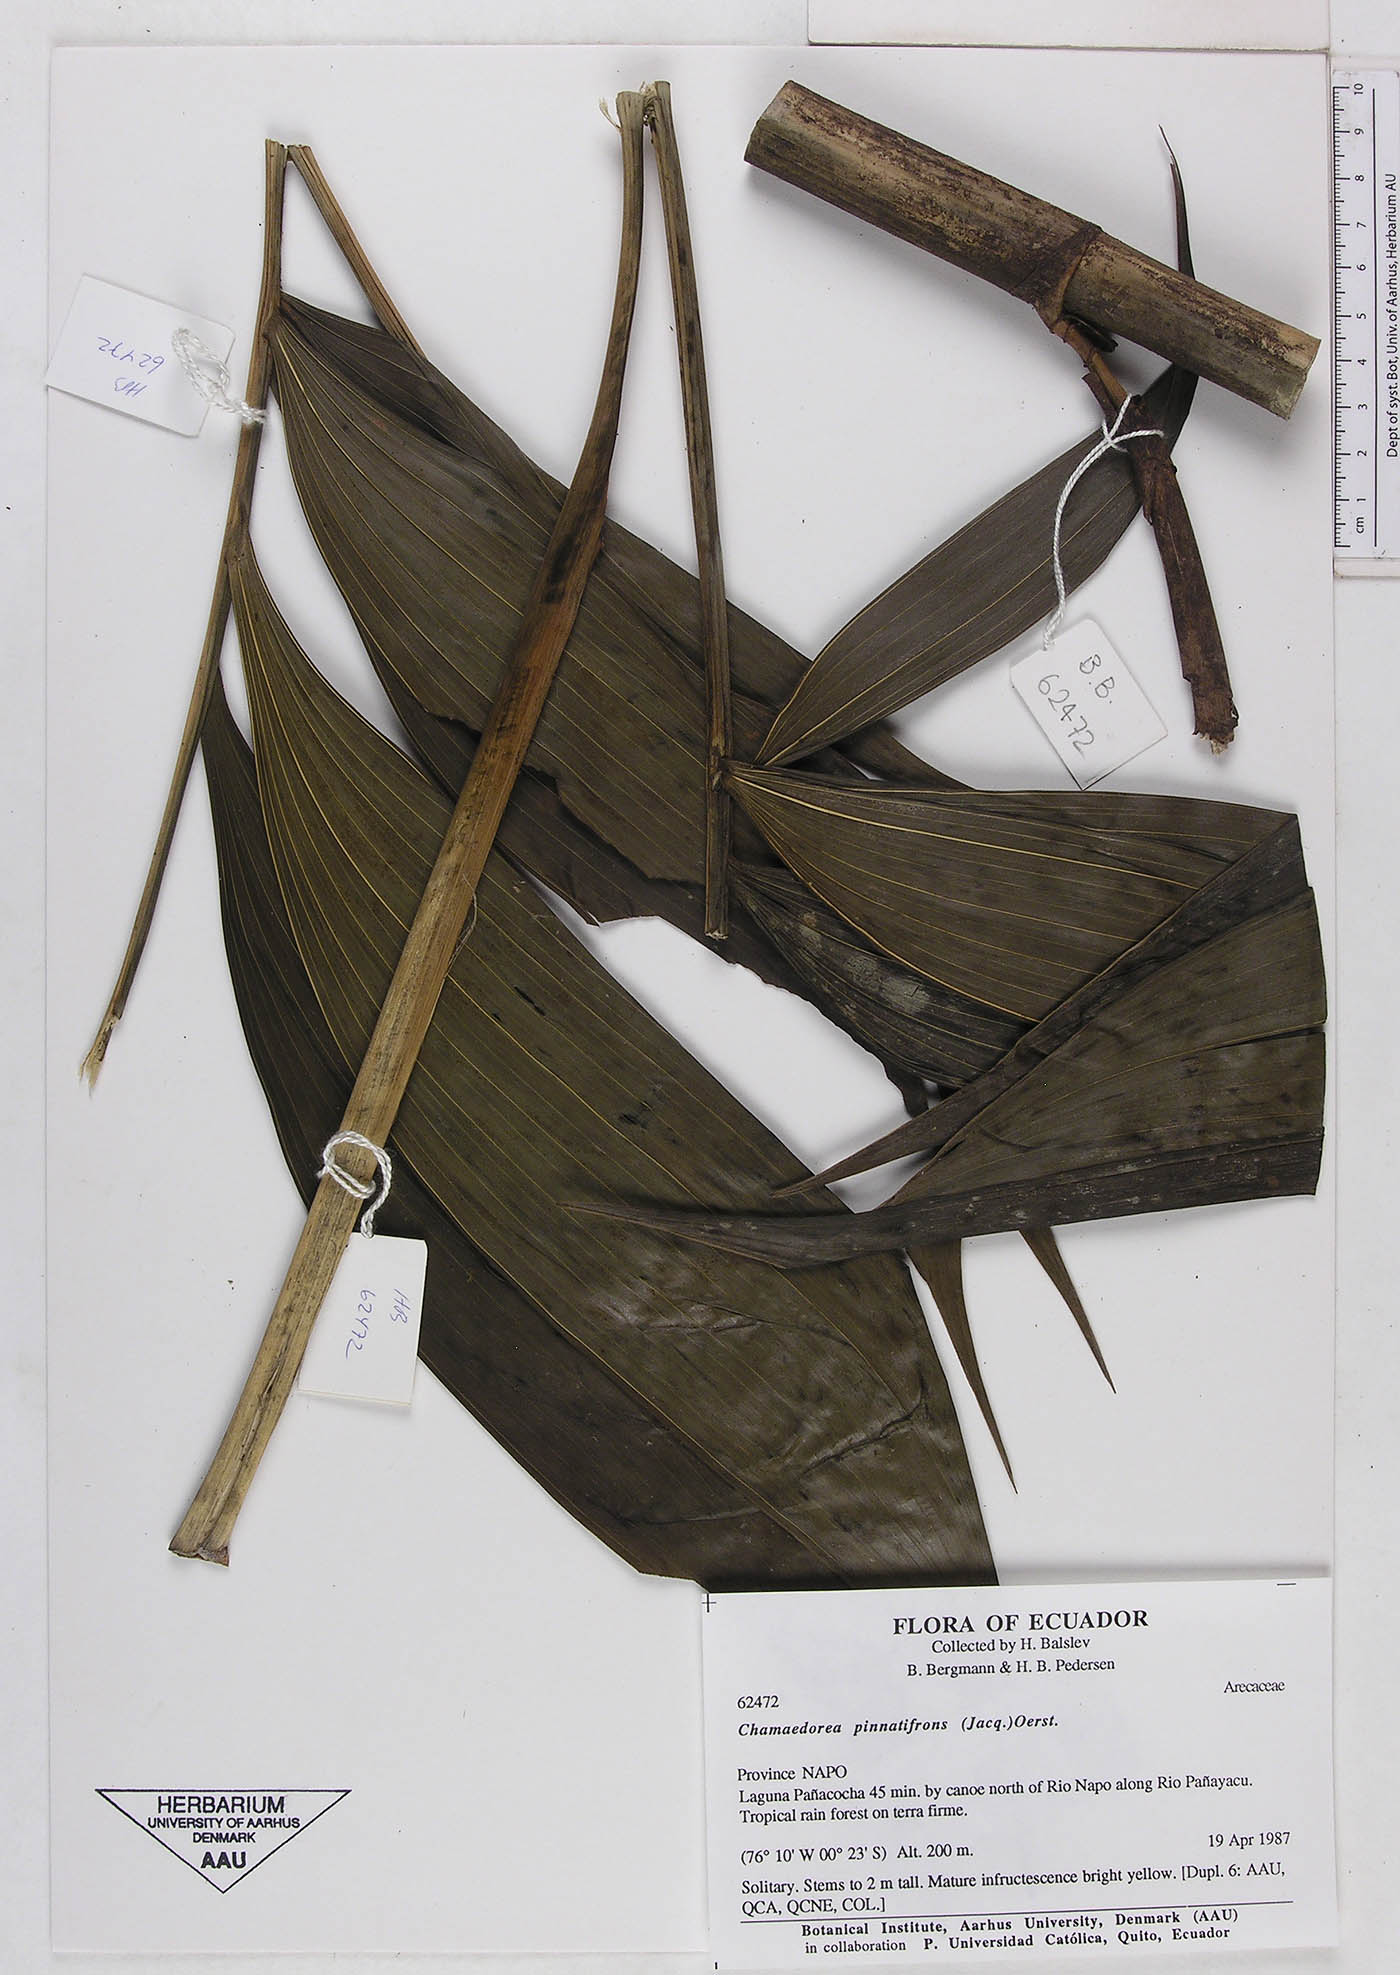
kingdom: Plantae
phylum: Tracheophyta
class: Liliopsida
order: Arecales
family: Arecaceae
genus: Chamaedorea
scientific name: Chamaedorea pinnatifrons
